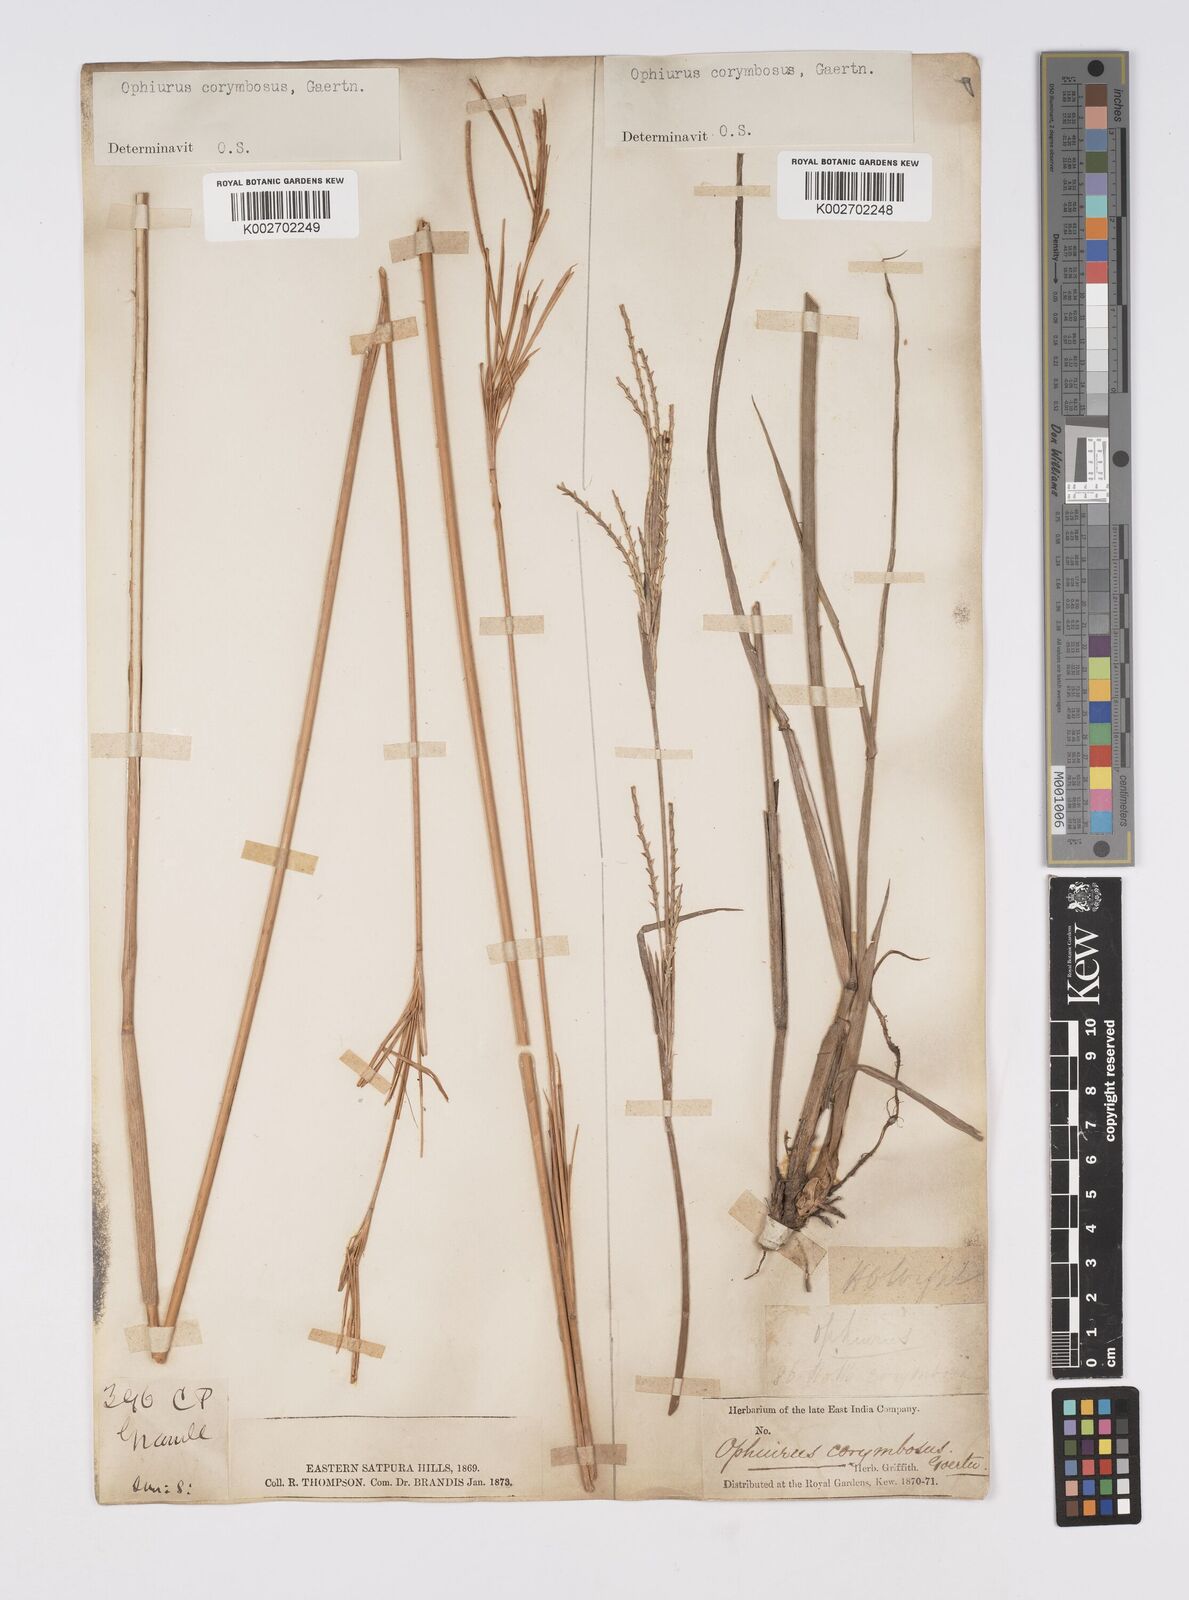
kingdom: Plantae
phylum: Tracheophyta
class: Liliopsida
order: Poales
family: Poaceae
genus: Ophiuros
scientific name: Ophiuros exaltatus
